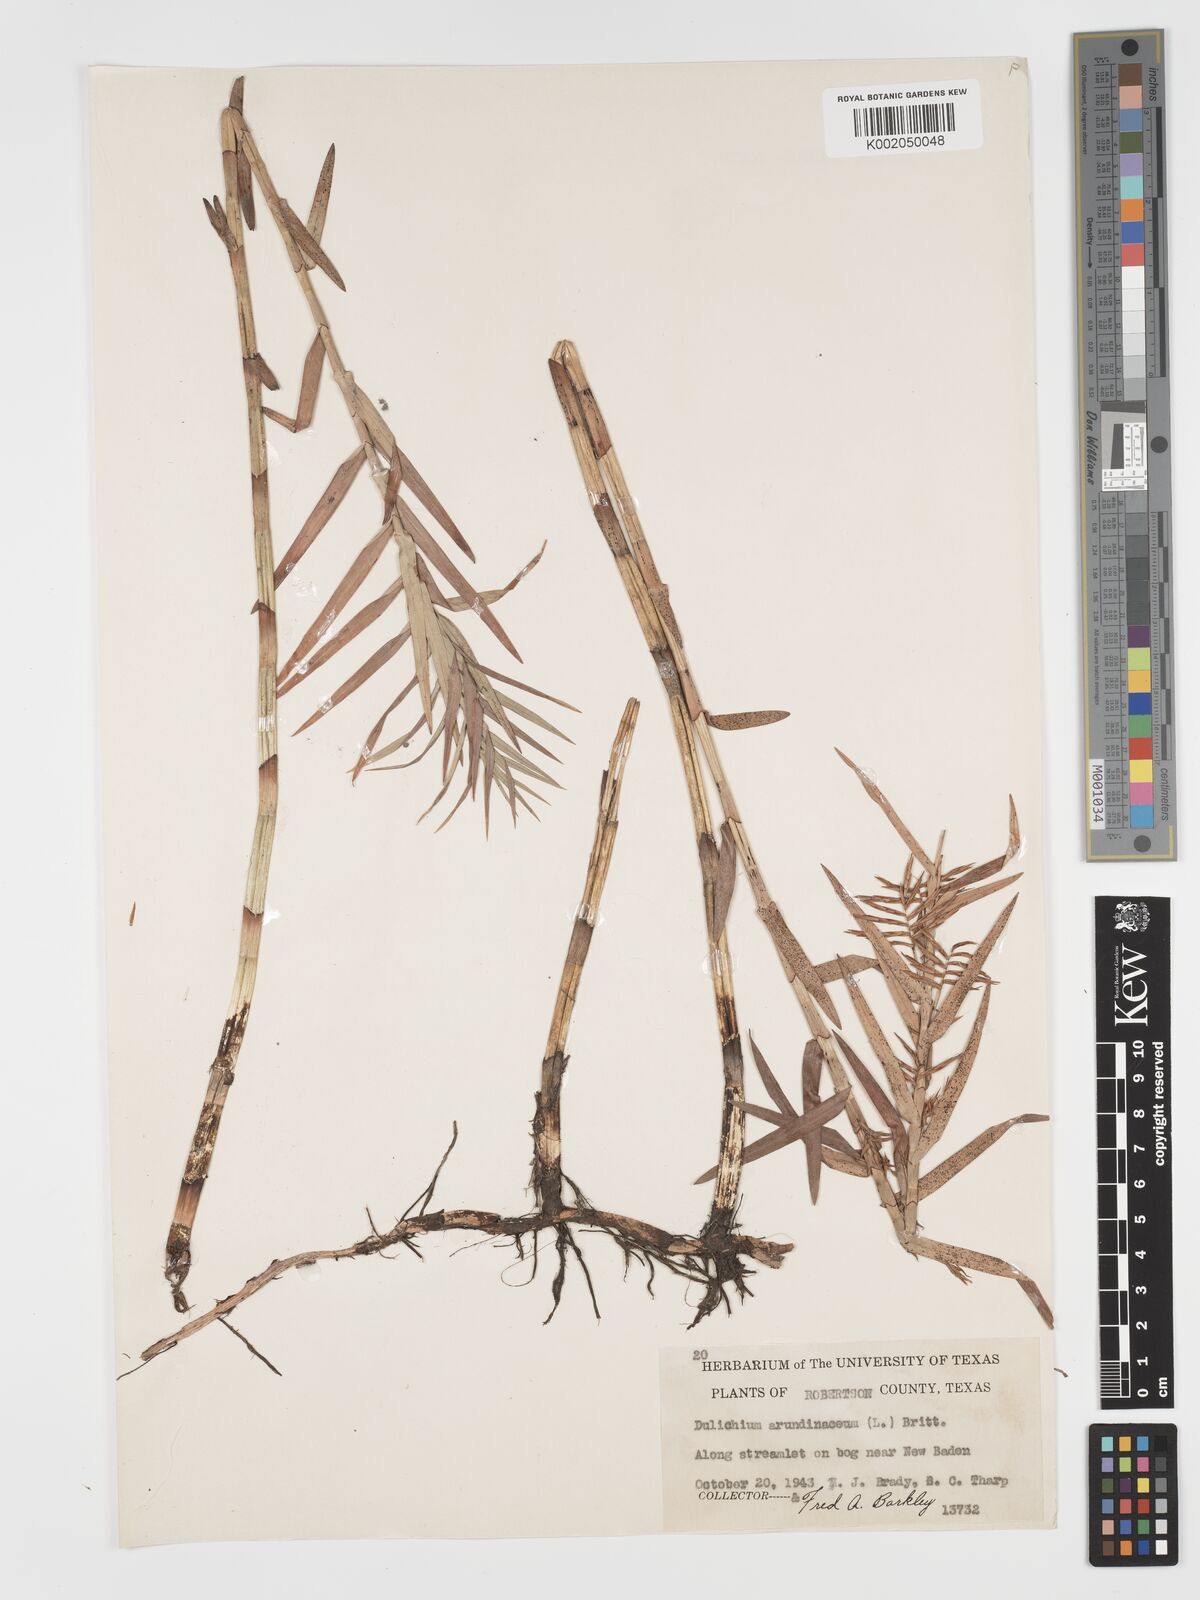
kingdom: Plantae
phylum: Tracheophyta
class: Liliopsida
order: Poales
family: Cyperaceae
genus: Dulichium
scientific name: Dulichium arundinaceum
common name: Three-way sedge
